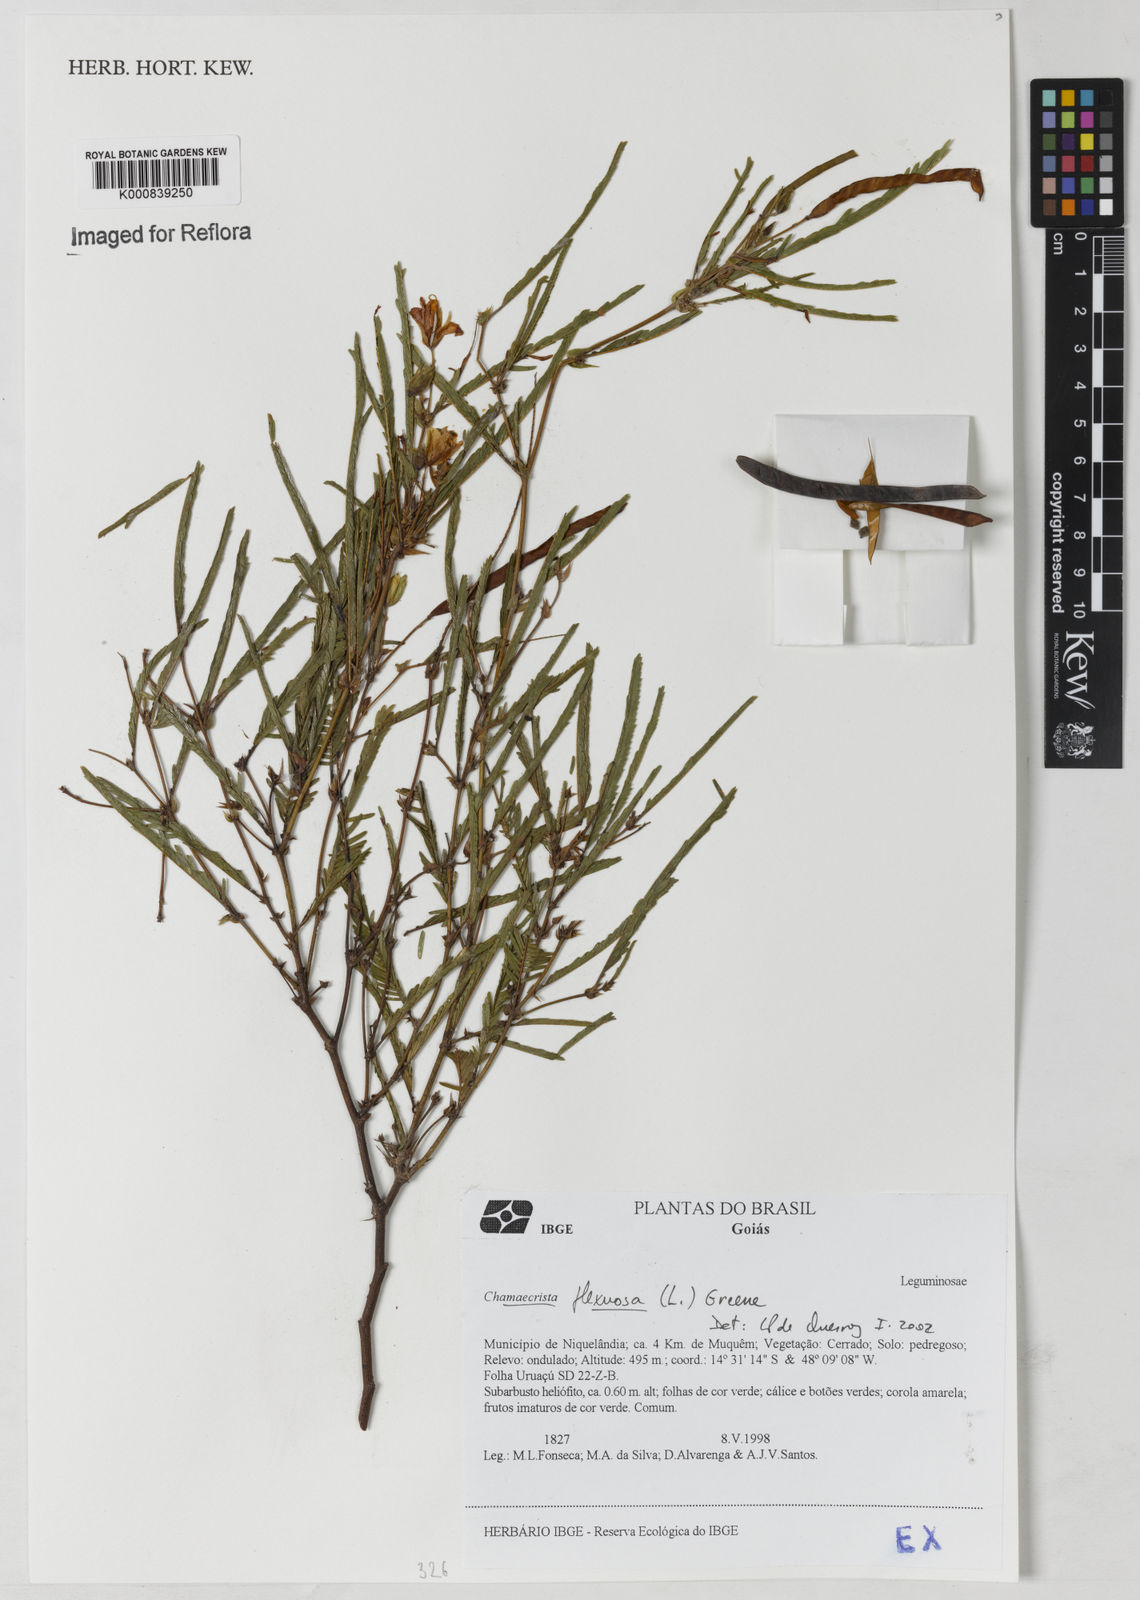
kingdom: Plantae
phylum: Tracheophyta
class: Magnoliopsida
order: Fabales
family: Fabaceae
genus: Chamaecrista
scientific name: Chamaecrista flexuosa
